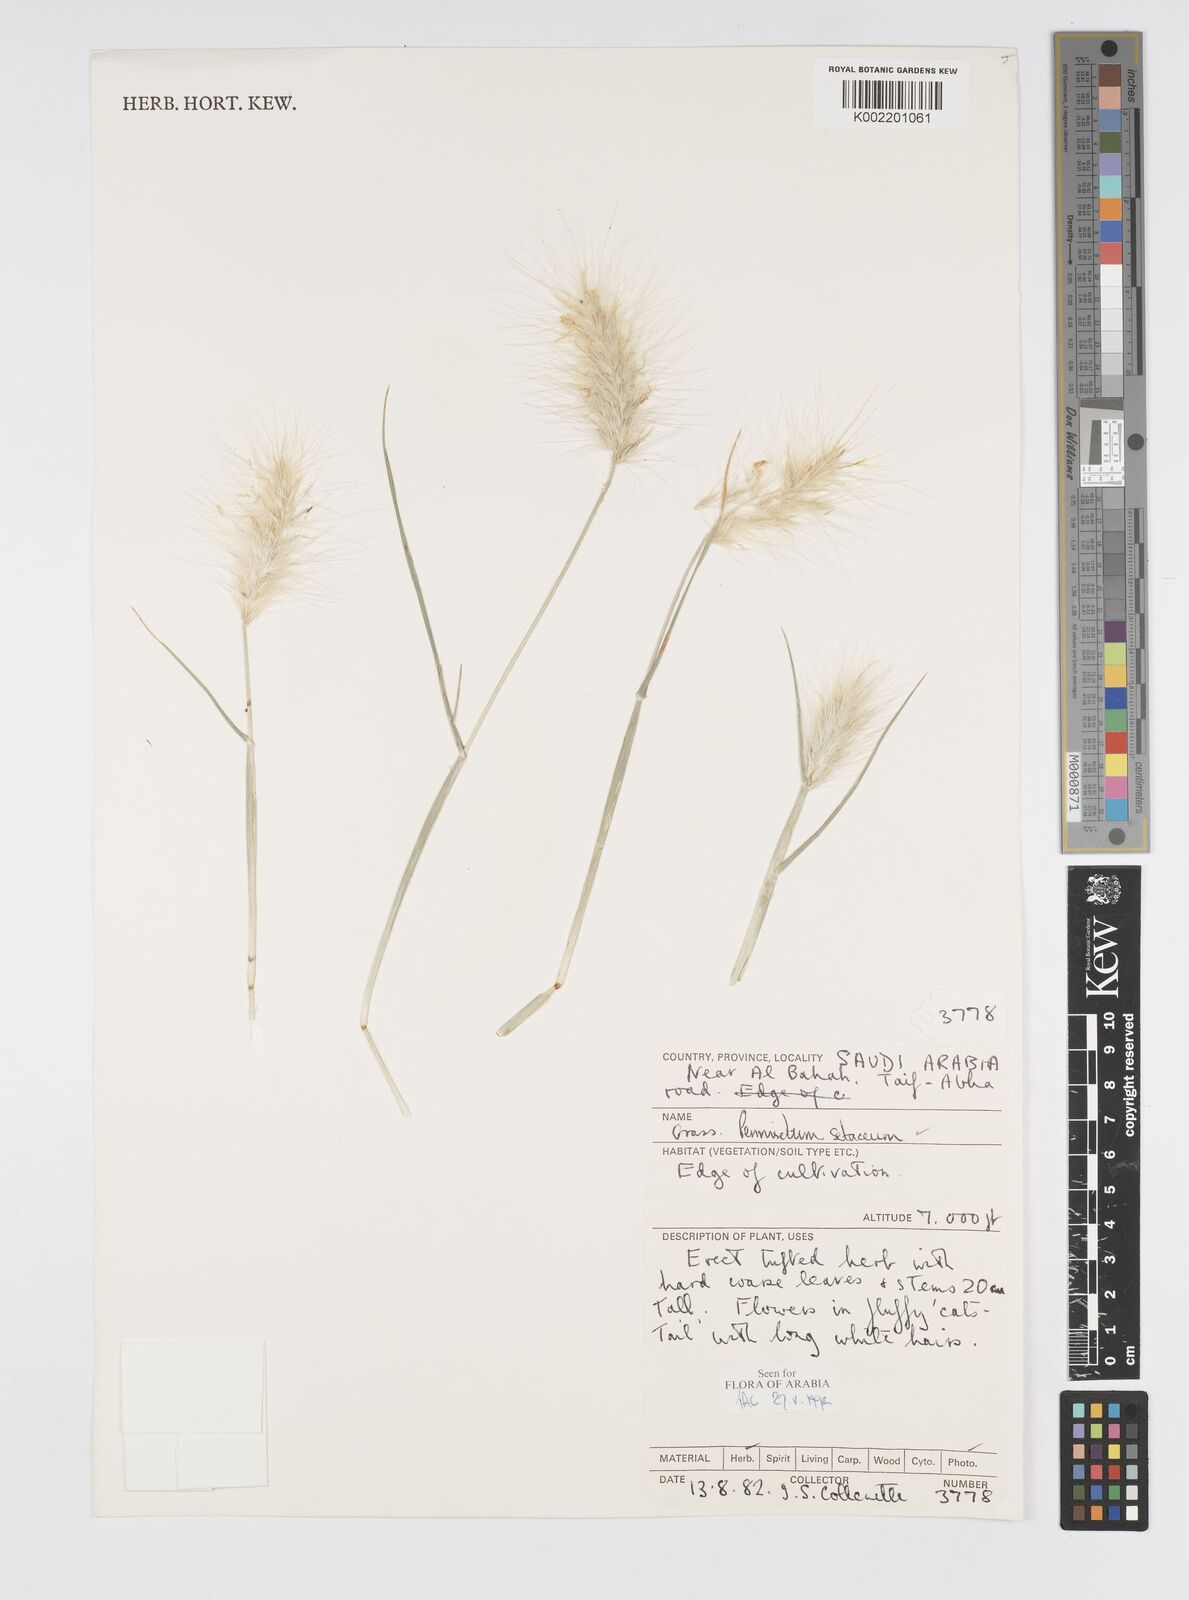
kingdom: Plantae
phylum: Tracheophyta
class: Liliopsida
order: Poales
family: Poaceae
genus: Cenchrus
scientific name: Cenchrus longisetus
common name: Feathertop
